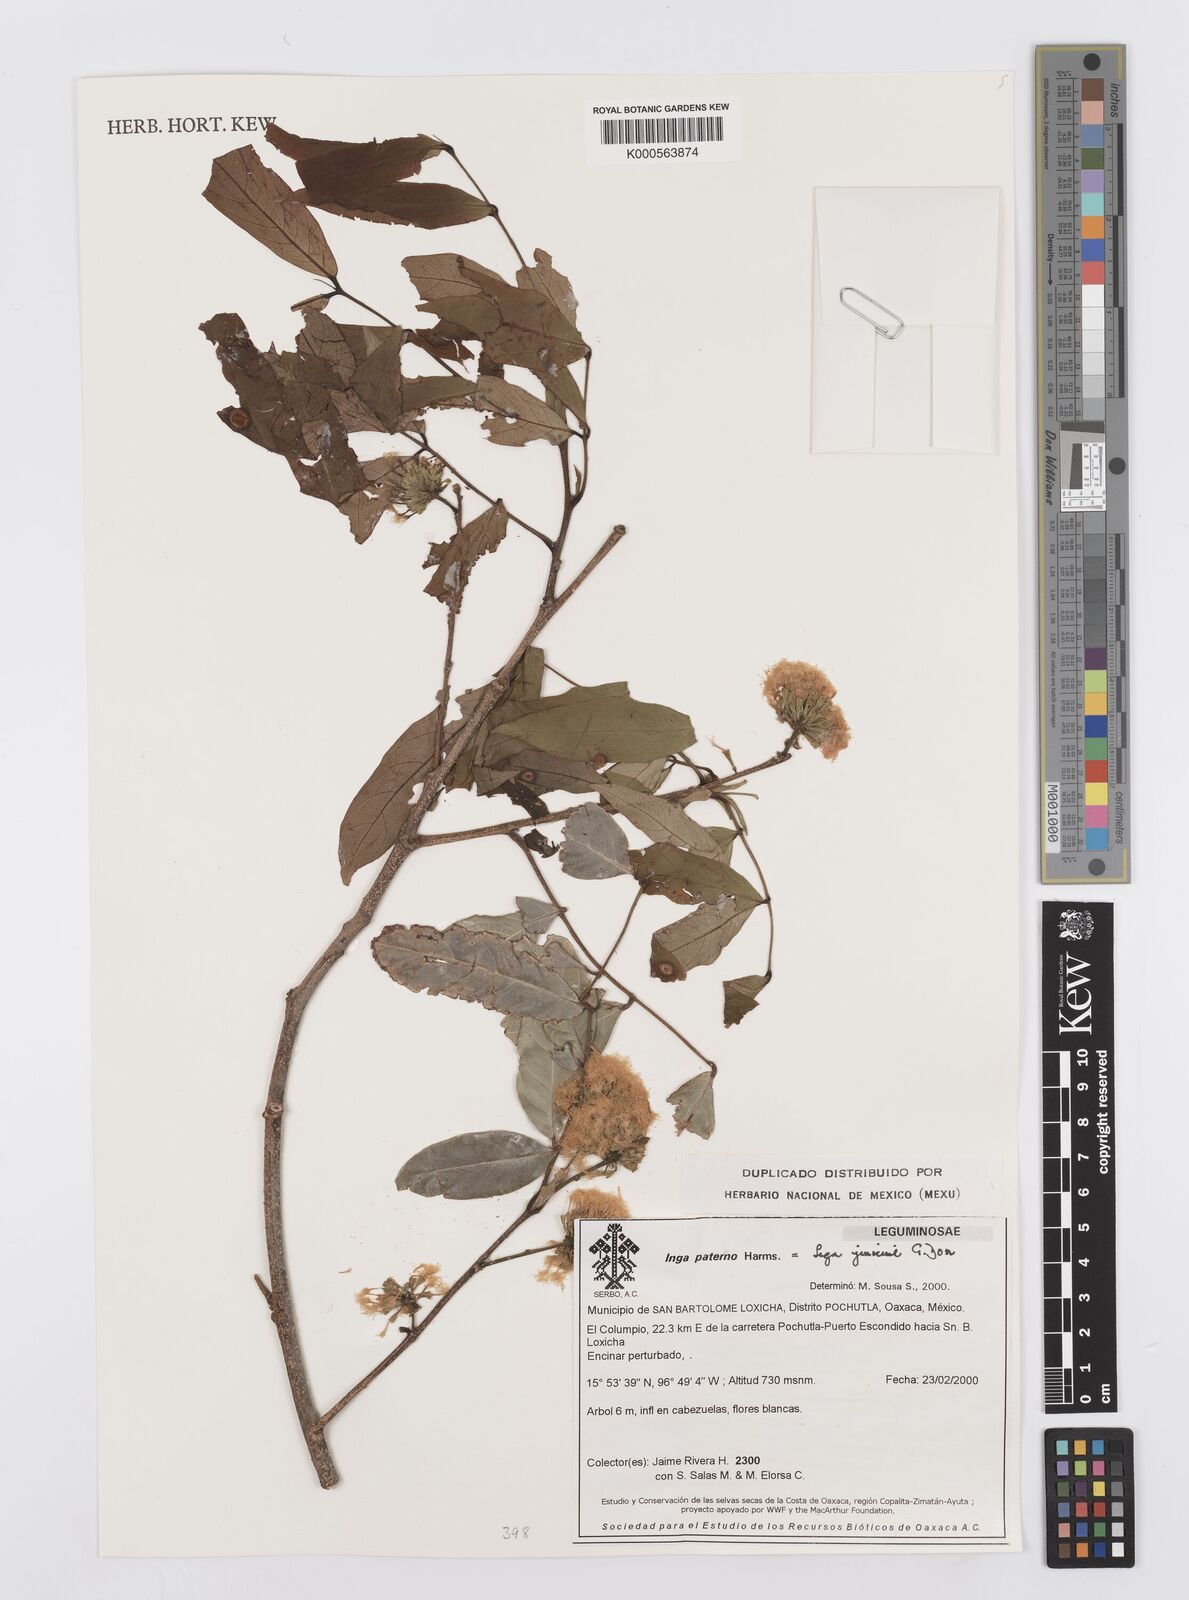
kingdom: Plantae
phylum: Tracheophyta
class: Magnoliopsida
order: Fabales
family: Fabaceae
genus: Inga
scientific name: Inga inicuil
